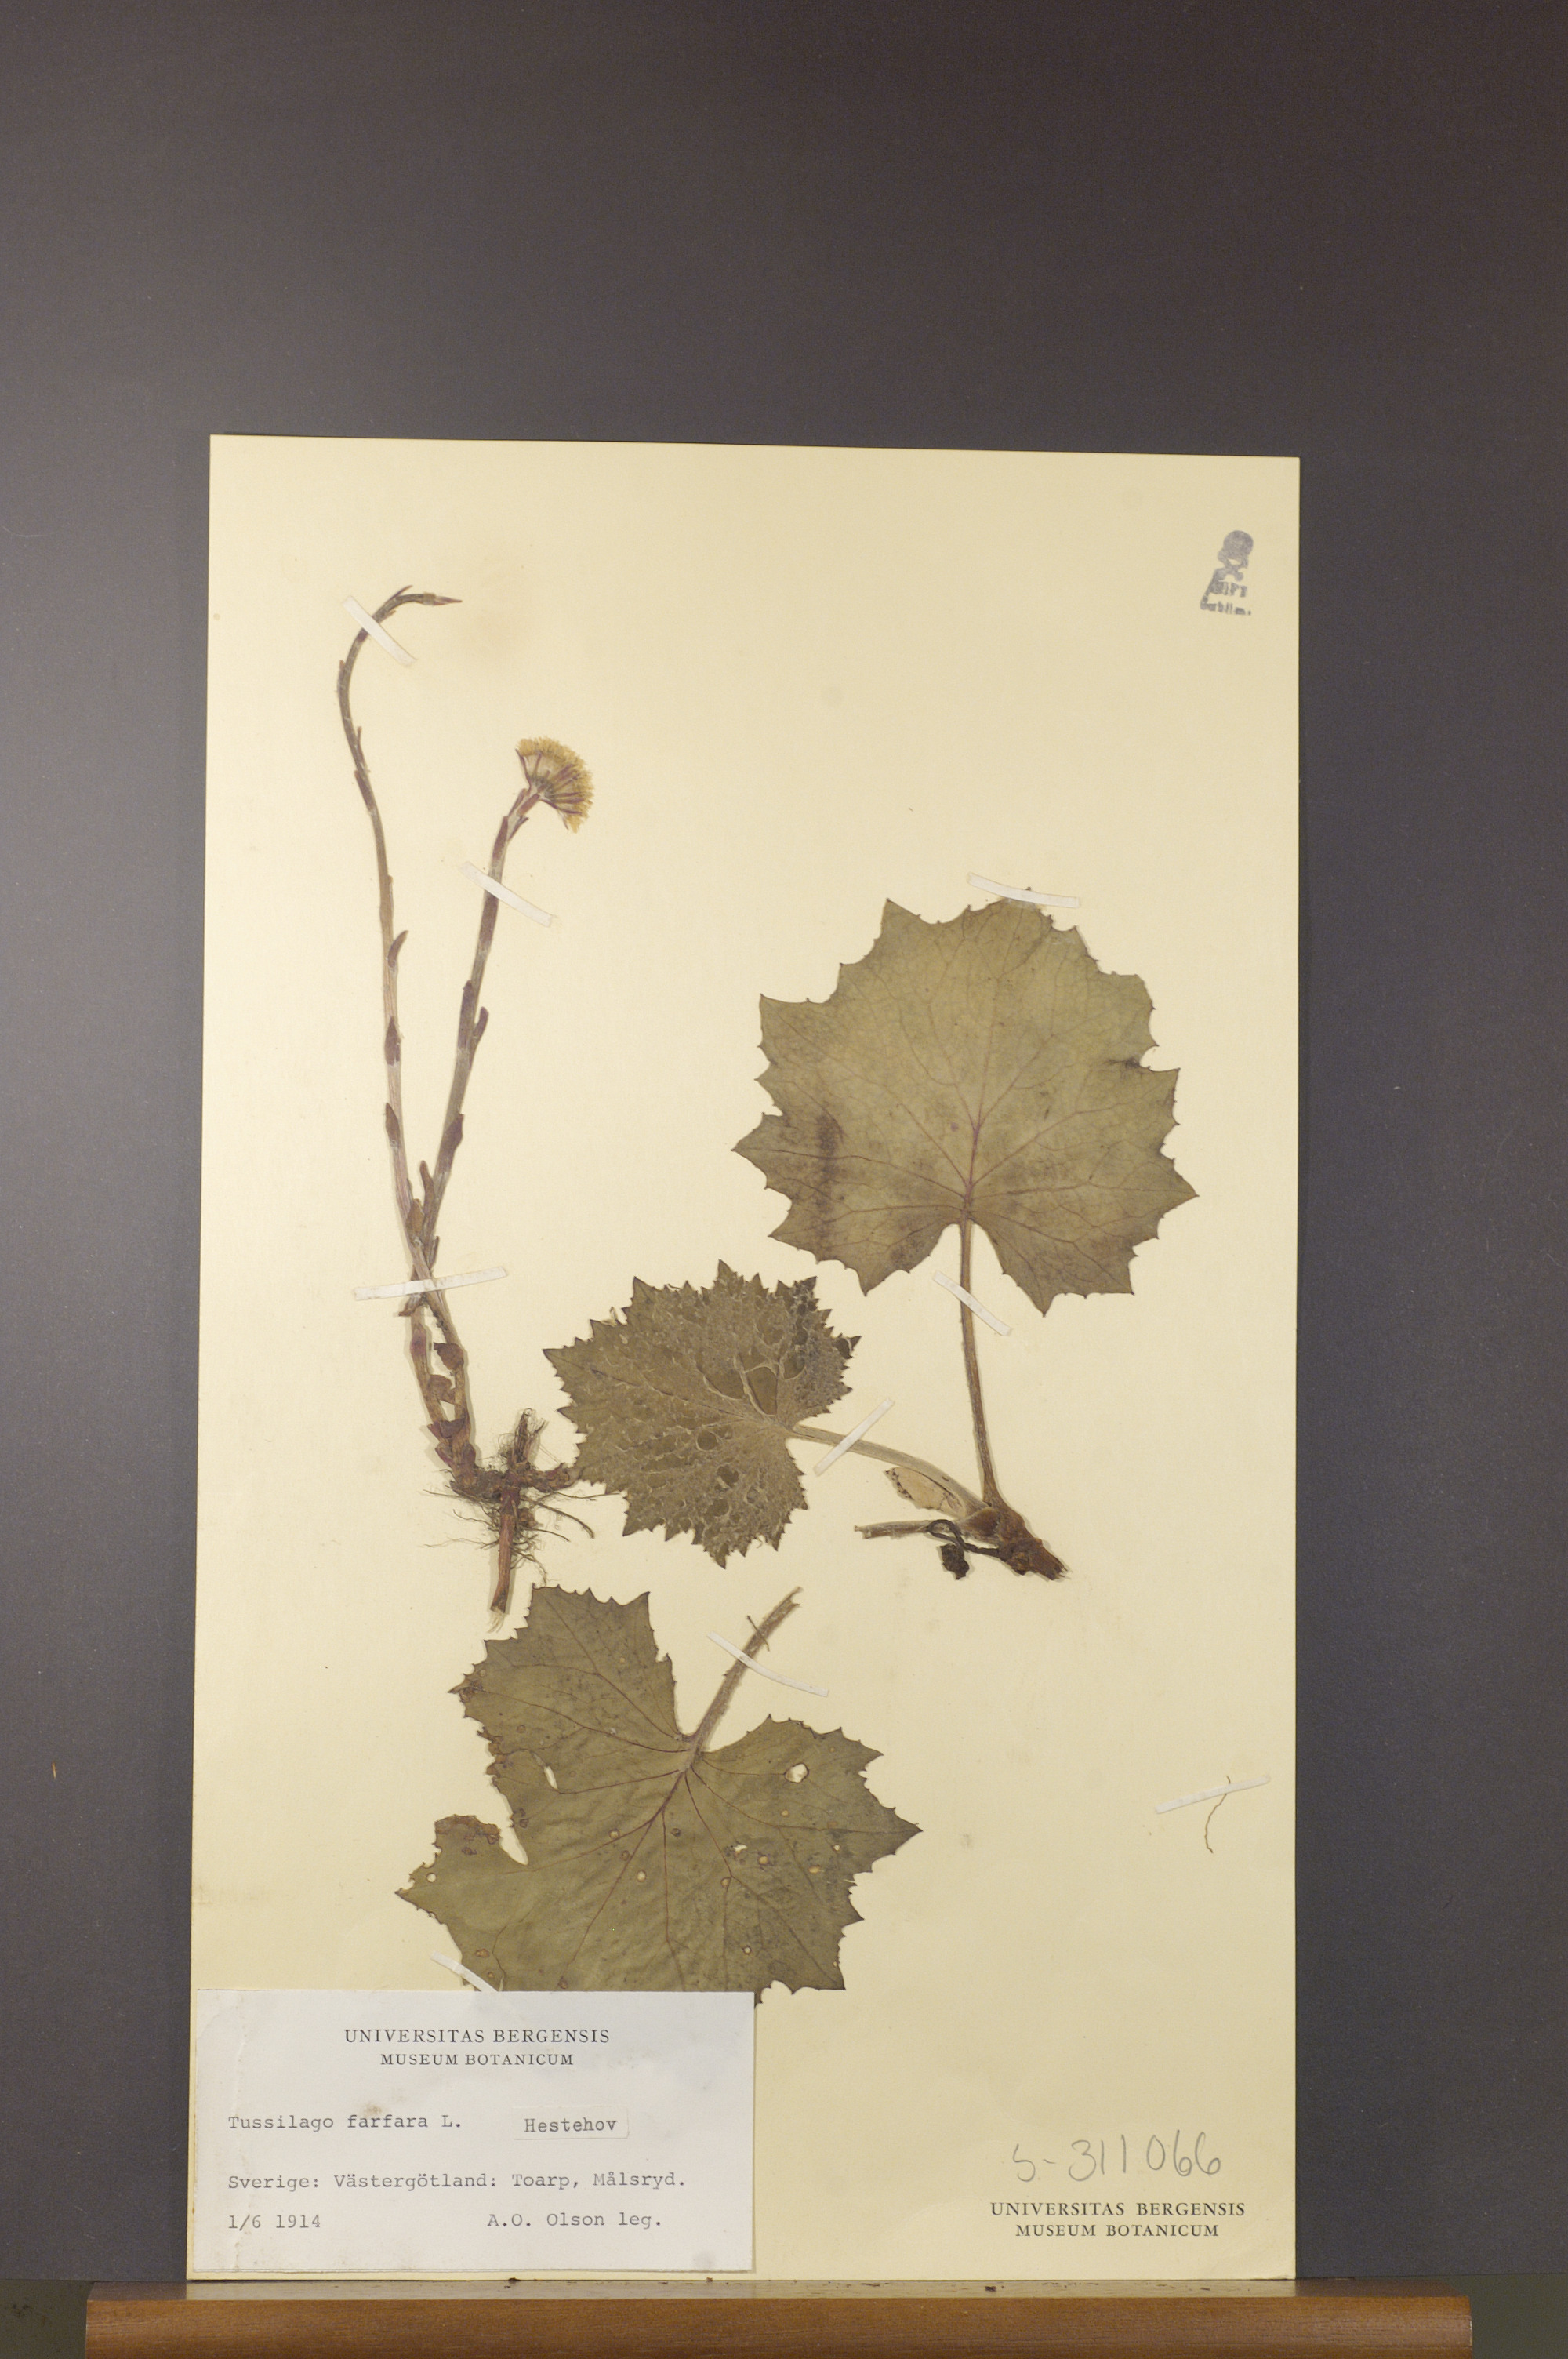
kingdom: Plantae
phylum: Tracheophyta
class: Magnoliopsida
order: Asterales
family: Asteraceae
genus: Tussilago
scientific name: Tussilago farfara
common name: Coltsfoot
